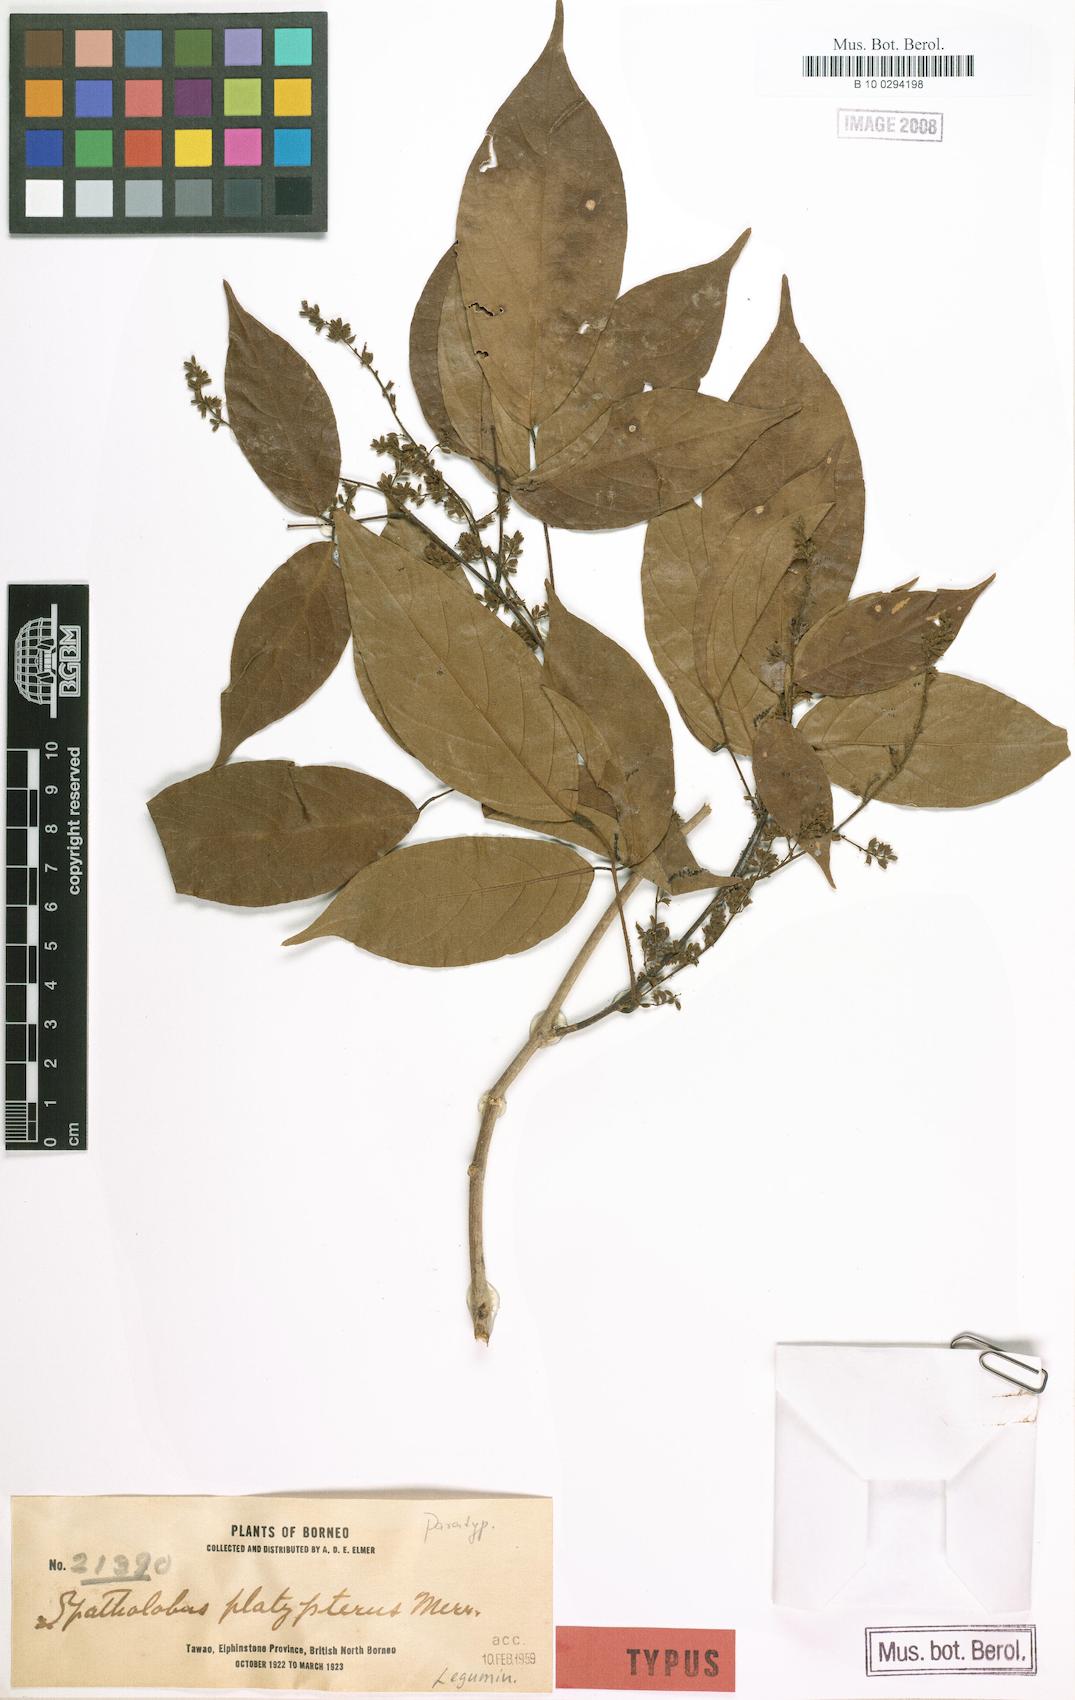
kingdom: Plantae
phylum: Tracheophyta
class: Magnoliopsida
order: Fabales
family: Fabaceae
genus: Spatholobus
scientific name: Spatholobus macropterus
